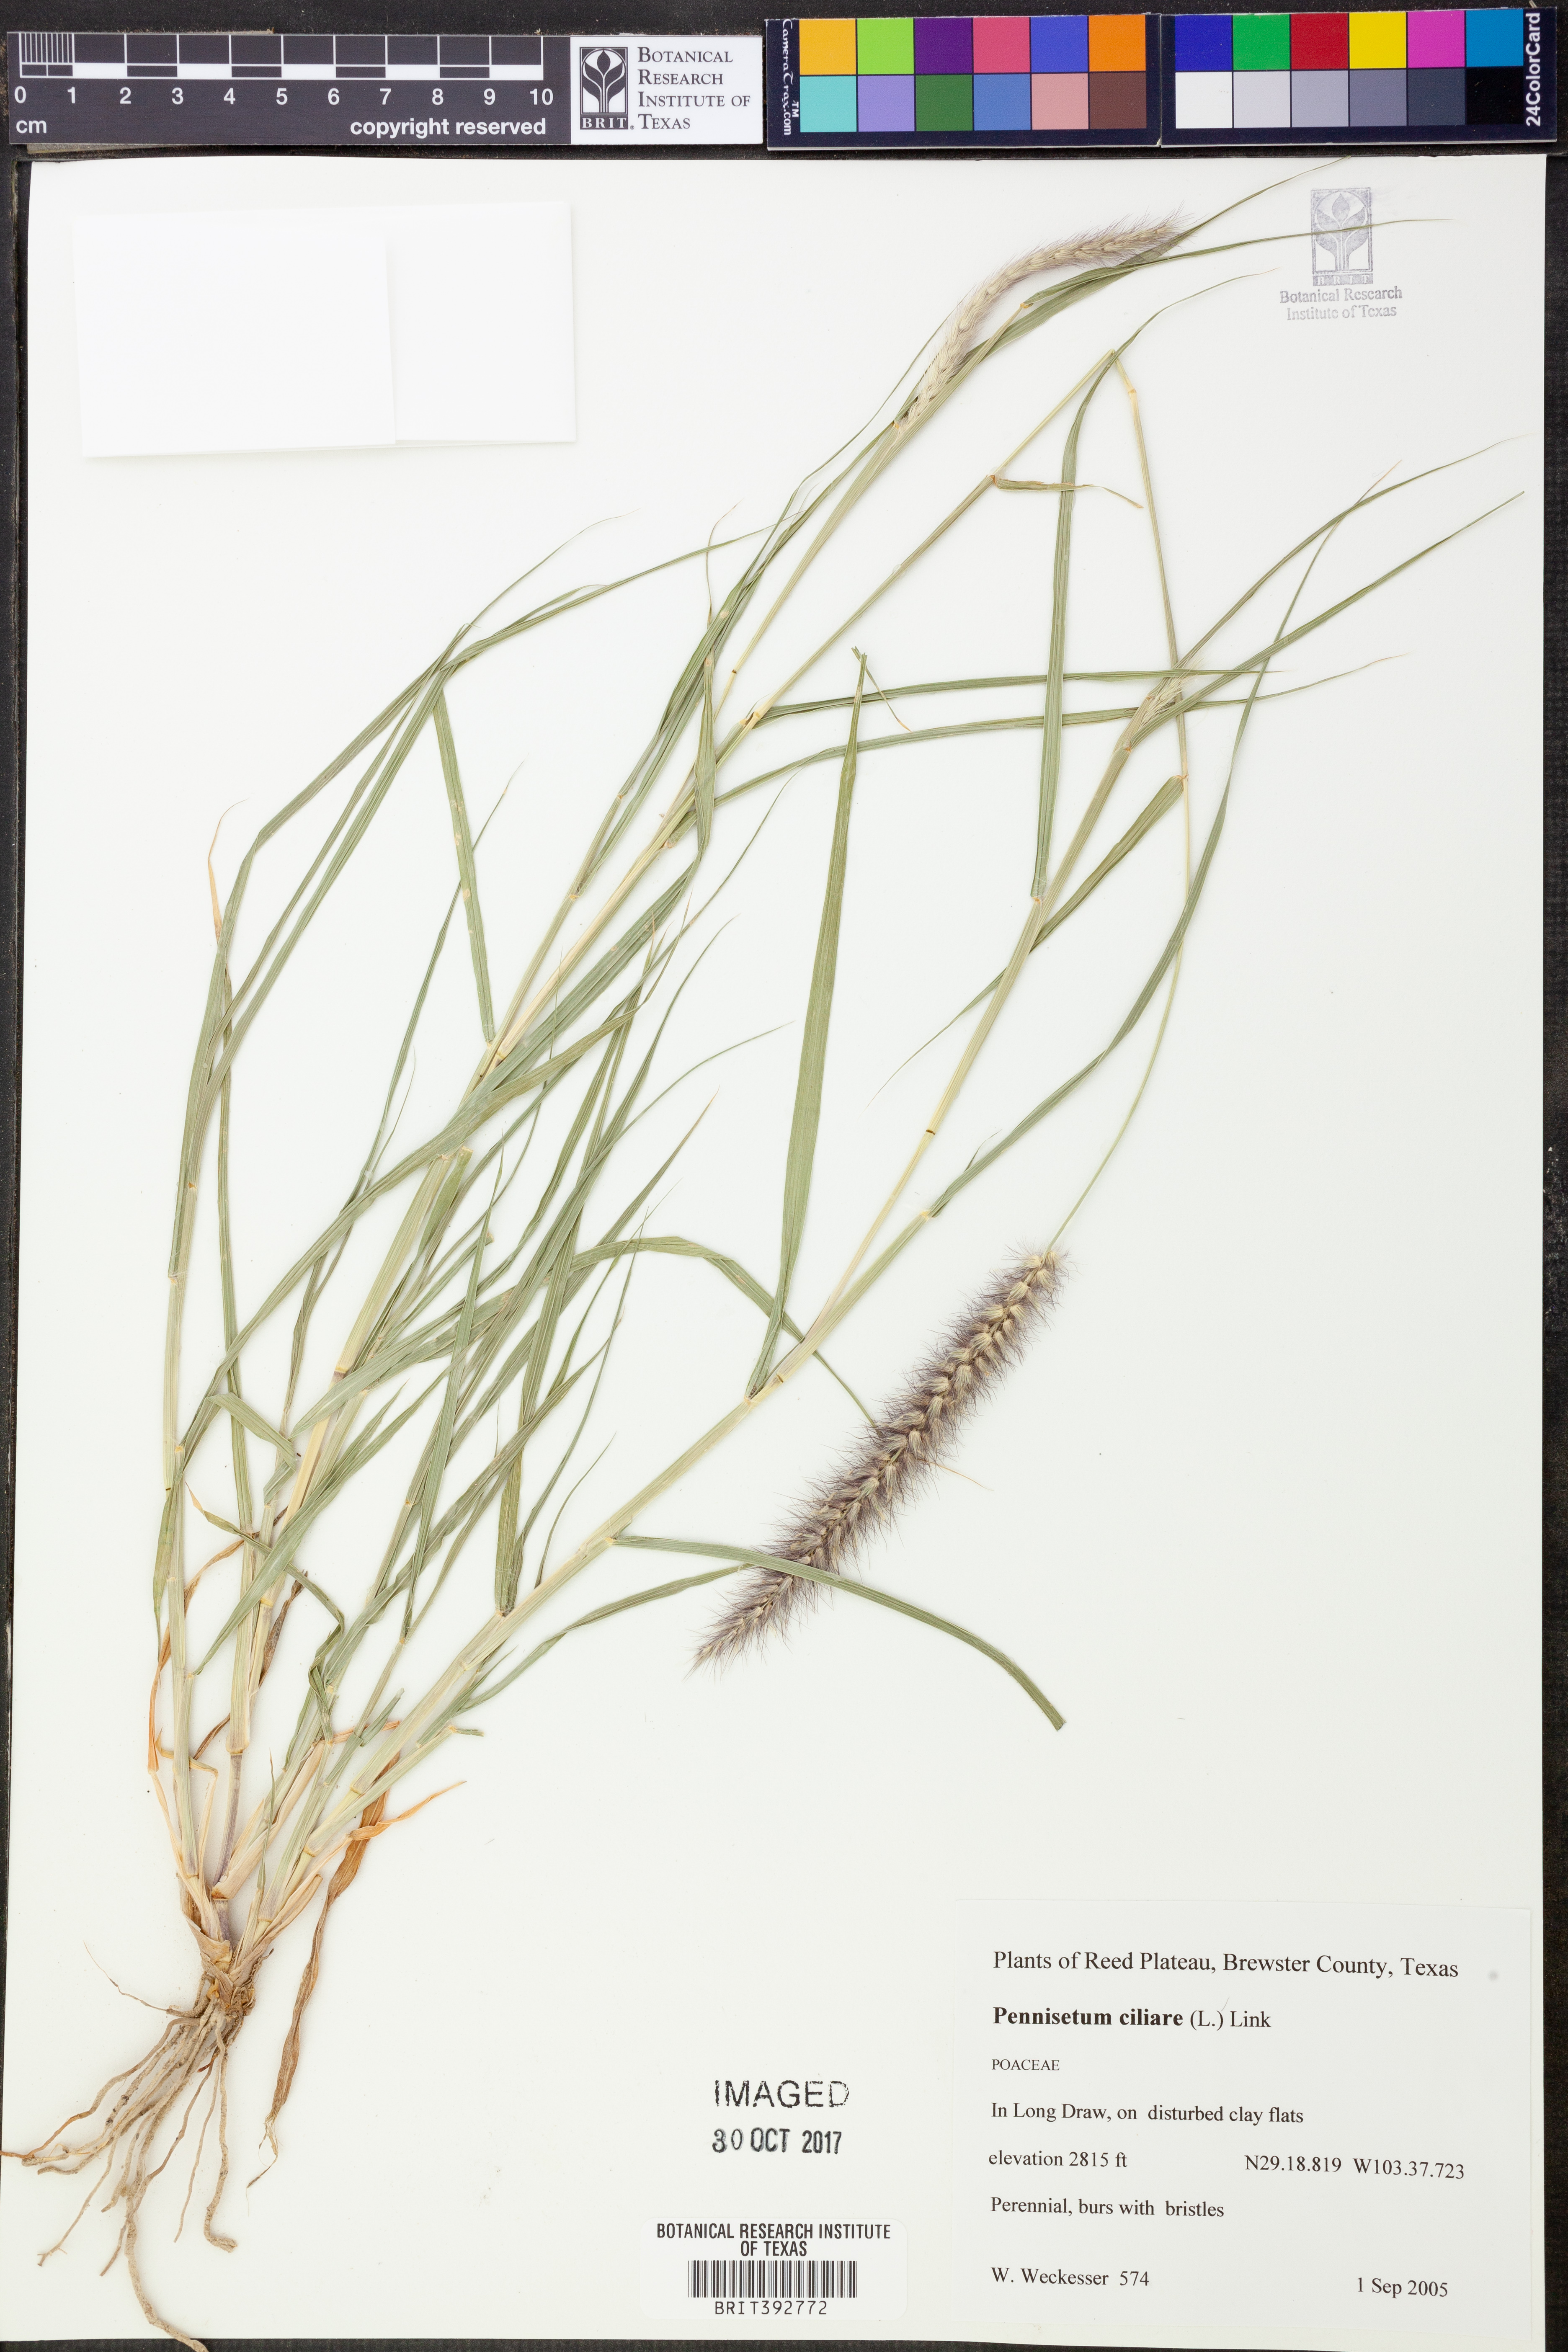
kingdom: Plantae
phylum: Tracheophyta
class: Liliopsida
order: Poales
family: Poaceae
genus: Cenchrus
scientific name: Cenchrus ciliaris
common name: Buffelgrass
